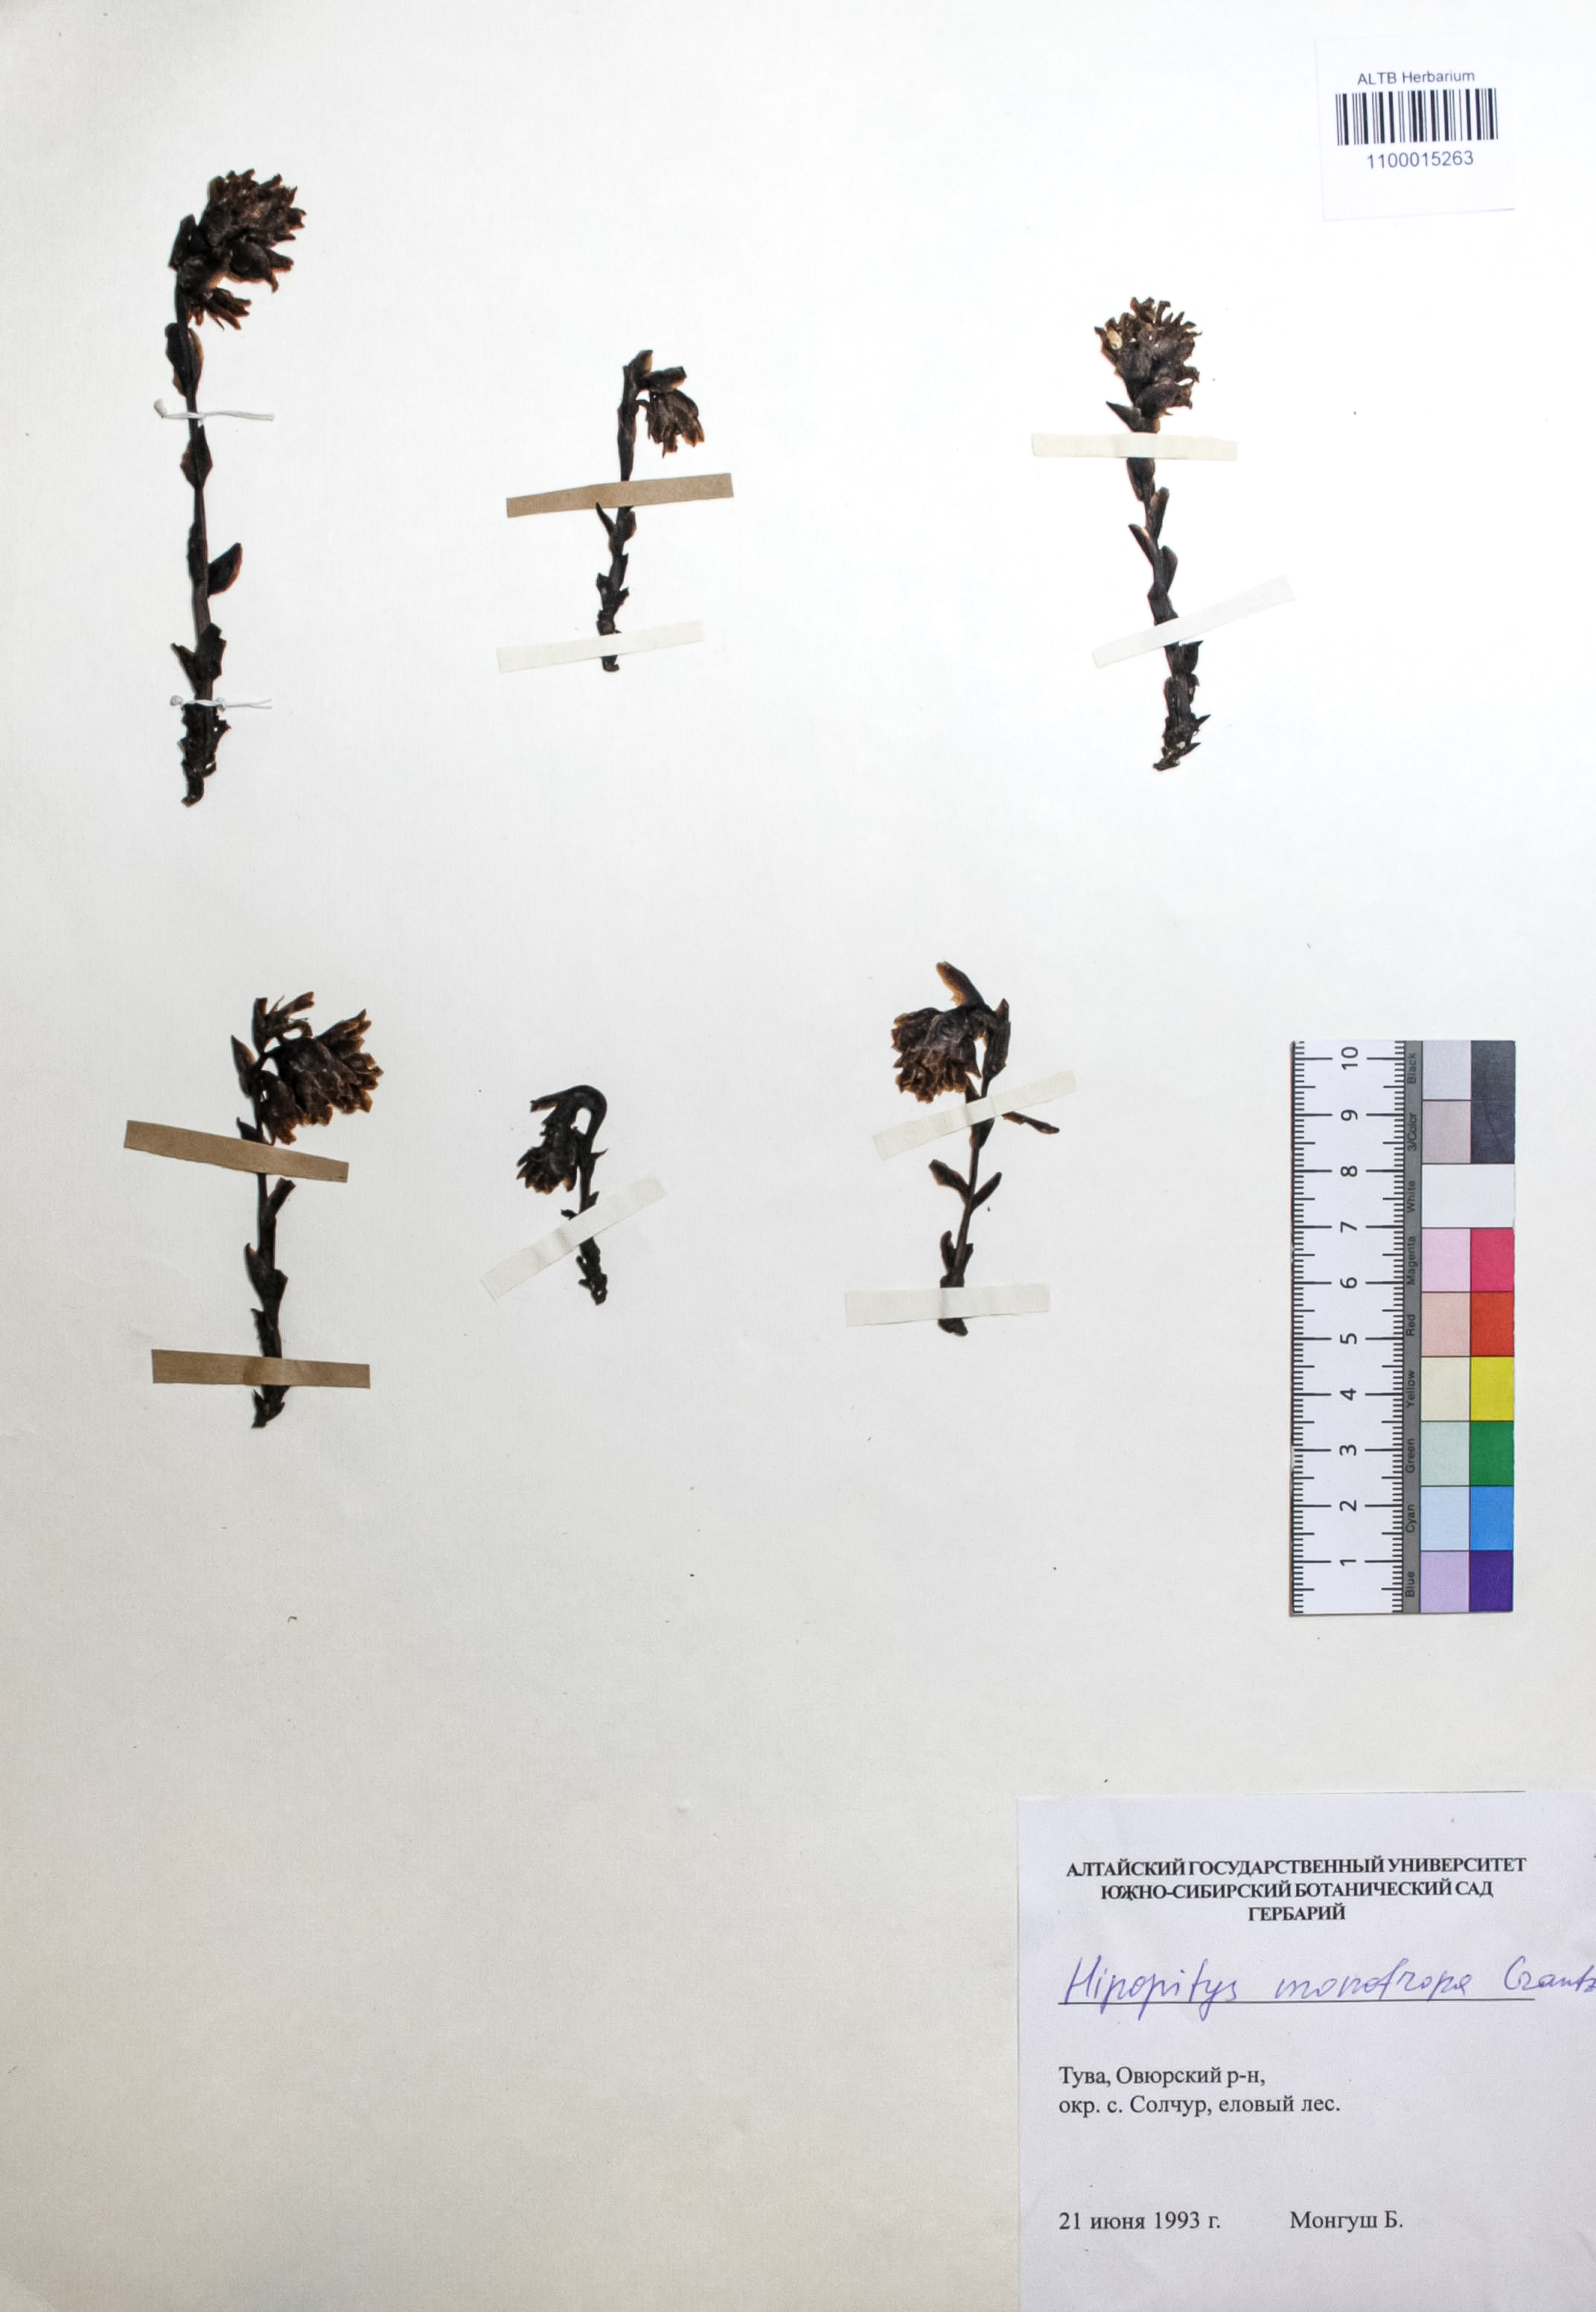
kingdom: Plantae
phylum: Tracheophyta
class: Magnoliopsida
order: Ericales
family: Ericaceae
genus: Hypopitys
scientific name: Hypopitys monotropa
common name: Yellow bird's-nest
